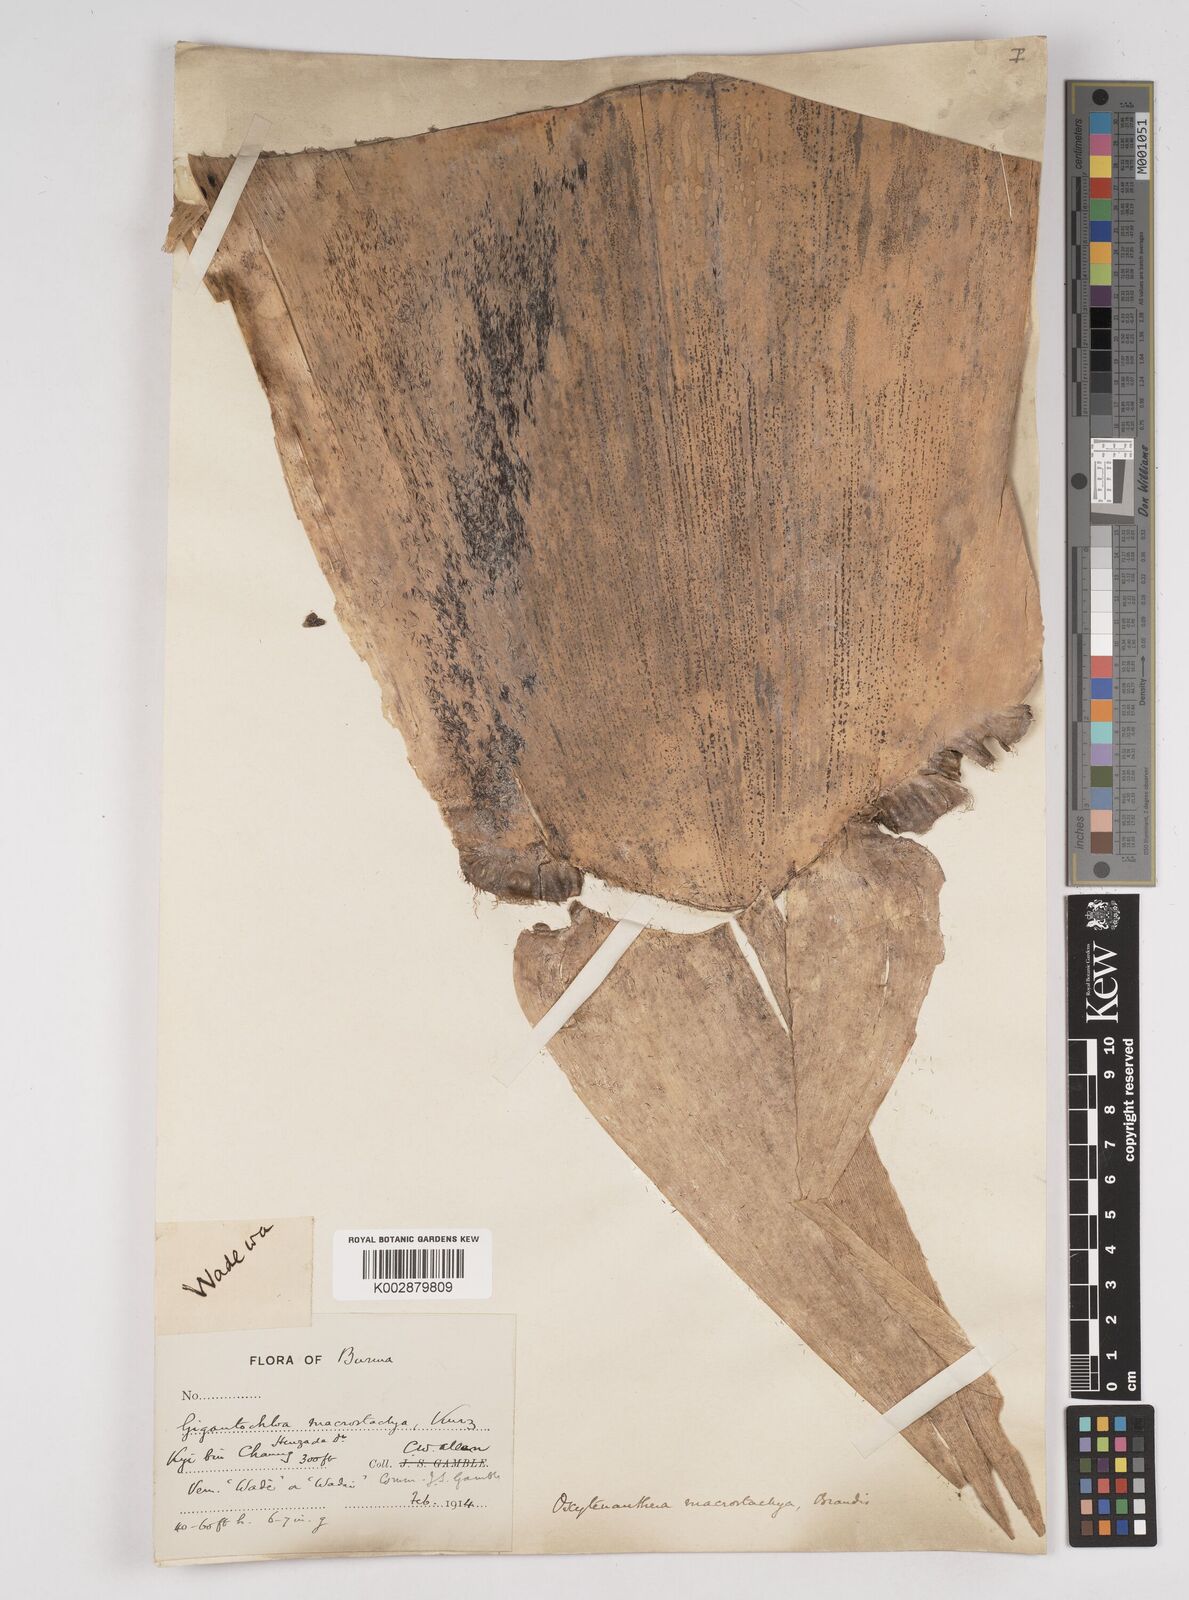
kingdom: Plantae
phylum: Tracheophyta
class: Liliopsida
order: Poales
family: Poaceae
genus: Gigantochloa
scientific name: Gigantochloa macrostachya
